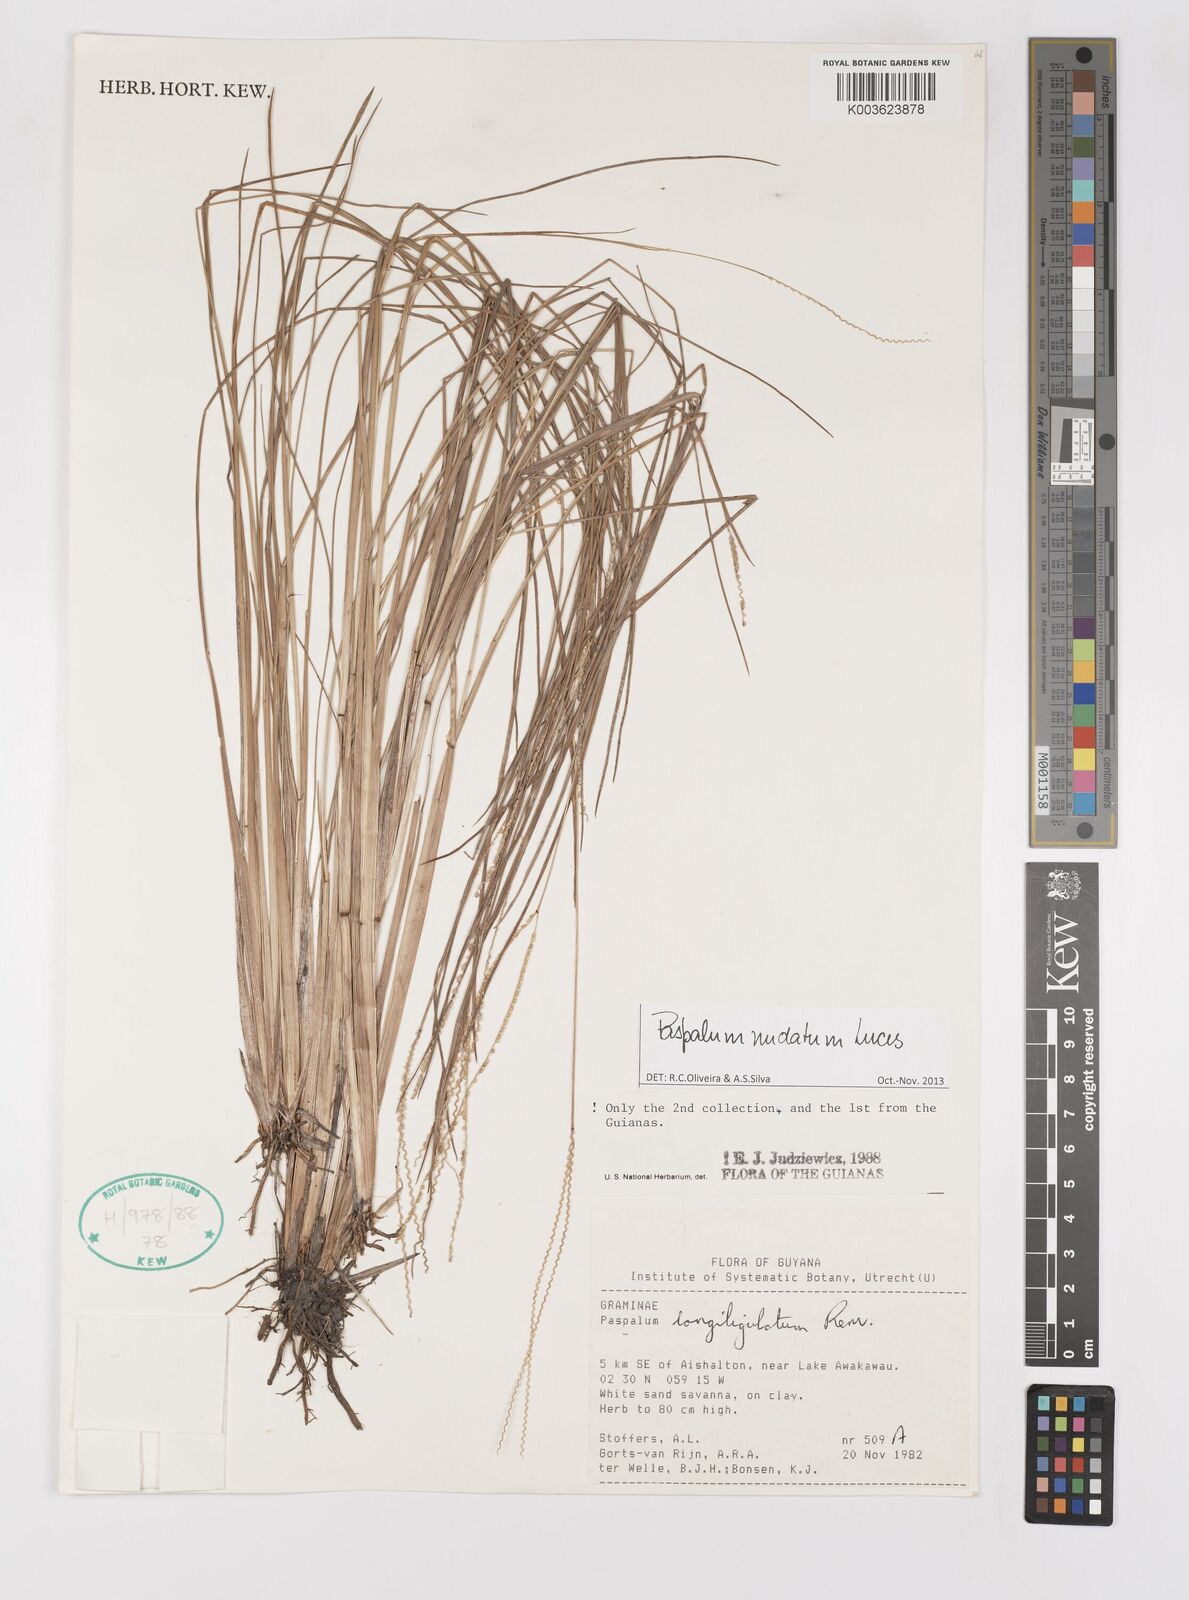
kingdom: Plantae
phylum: Tracheophyta
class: Liliopsida
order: Poales
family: Poaceae
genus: Paspalum
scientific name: Paspalum nudatum
